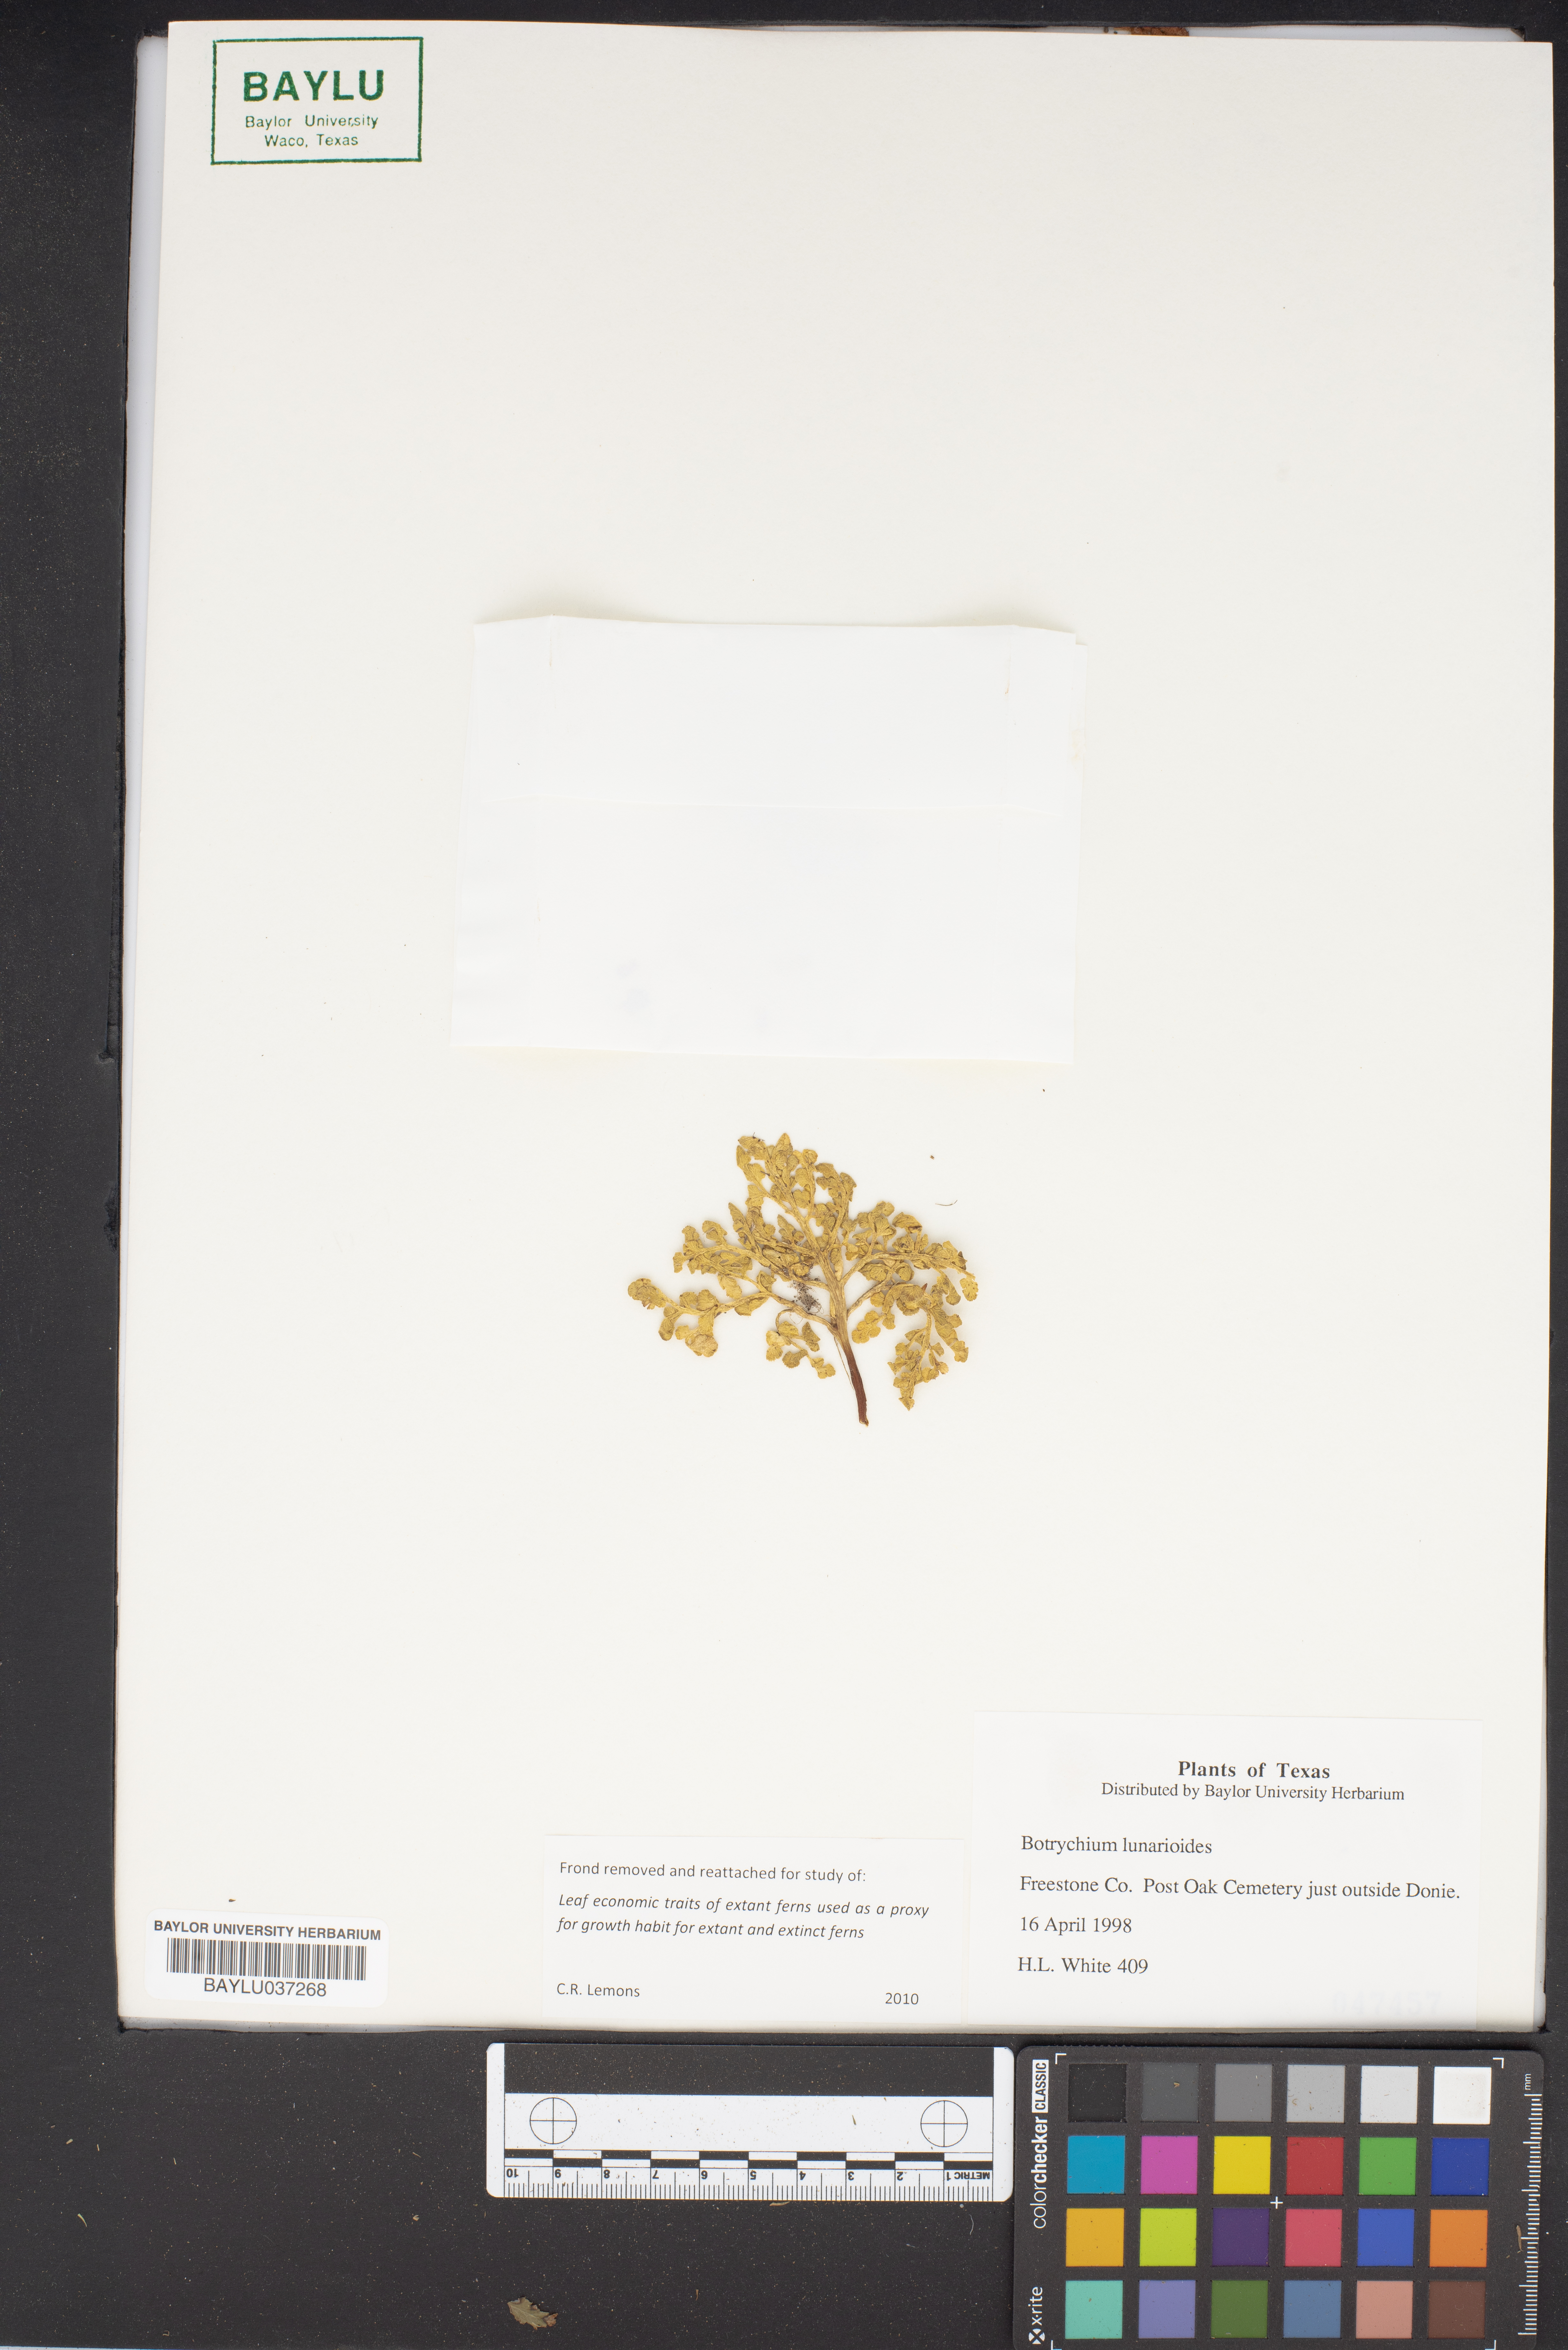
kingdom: Plantae
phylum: Tracheophyta
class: Polypodiopsida
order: Ophioglossales
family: Ophioglossaceae
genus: Sceptridium
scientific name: Sceptridium lunarioides
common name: Prostrate grapefern
